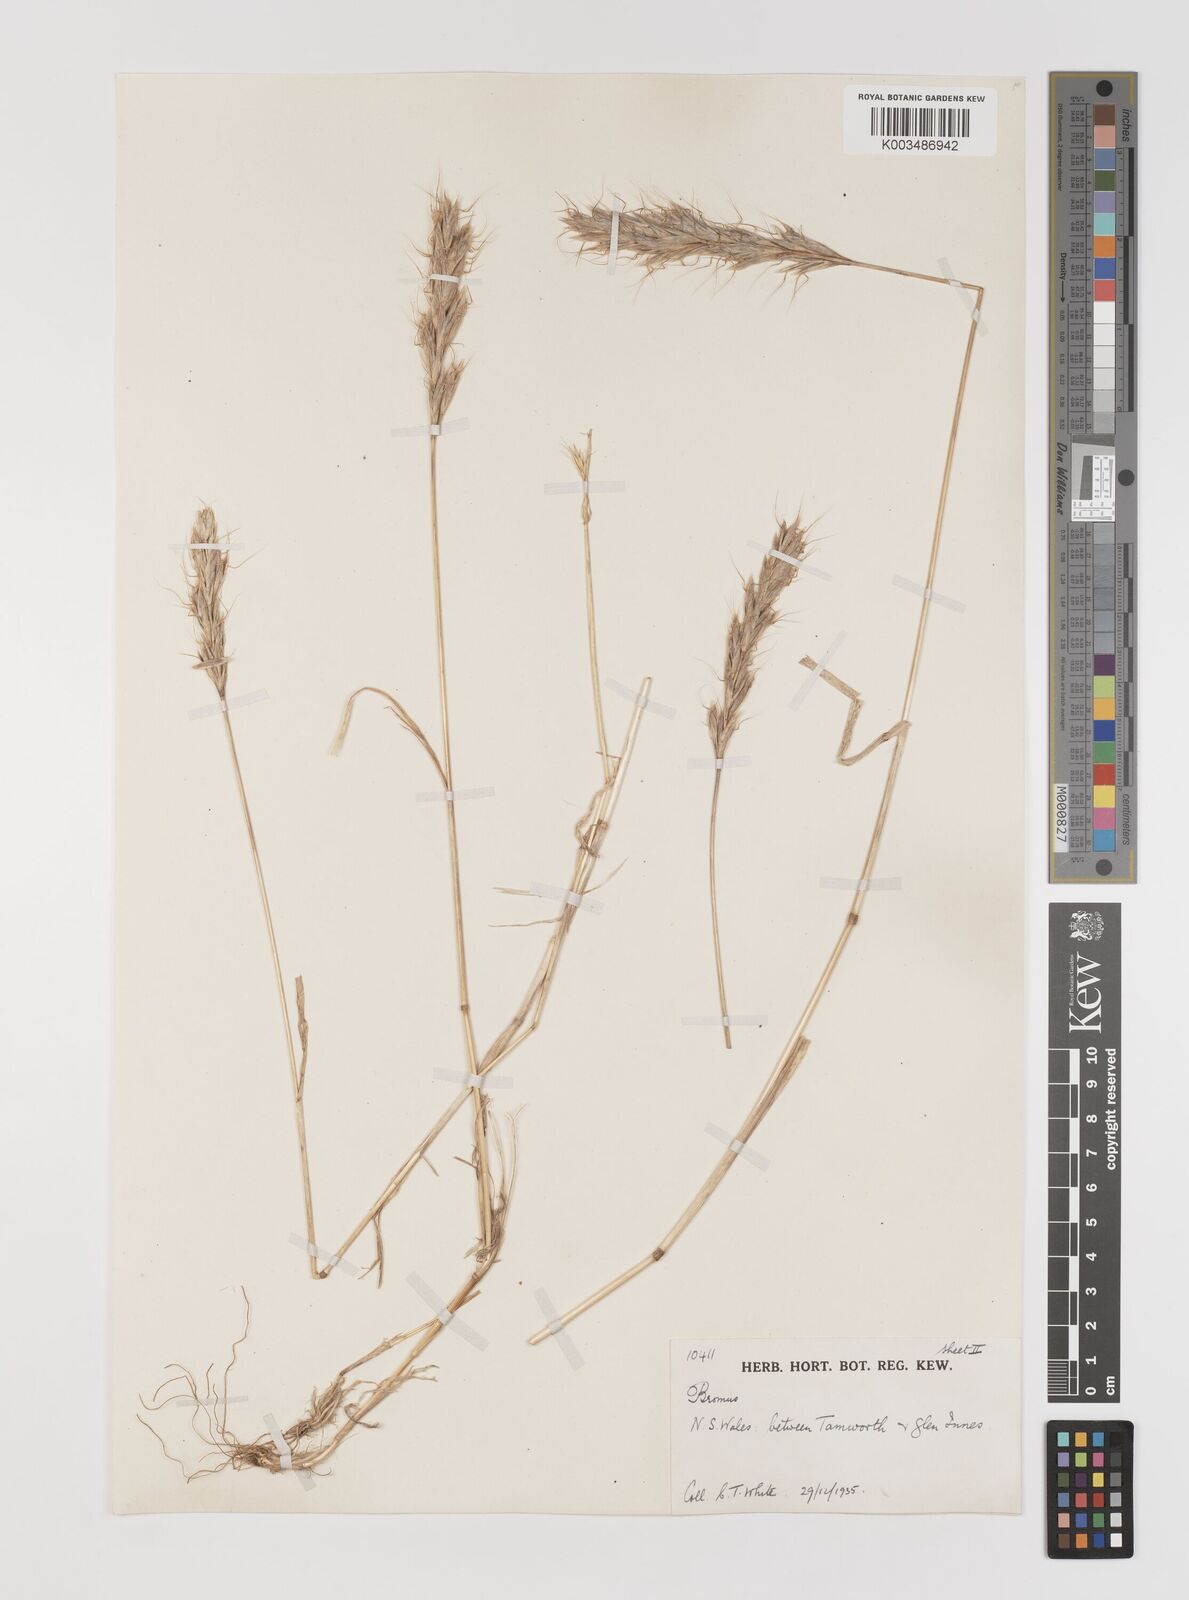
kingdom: Plantae
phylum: Tracheophyta
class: Liliopsida
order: Poales
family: Poaceae
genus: Bromus
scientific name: Bromus alopecuros
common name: Weedy brome
